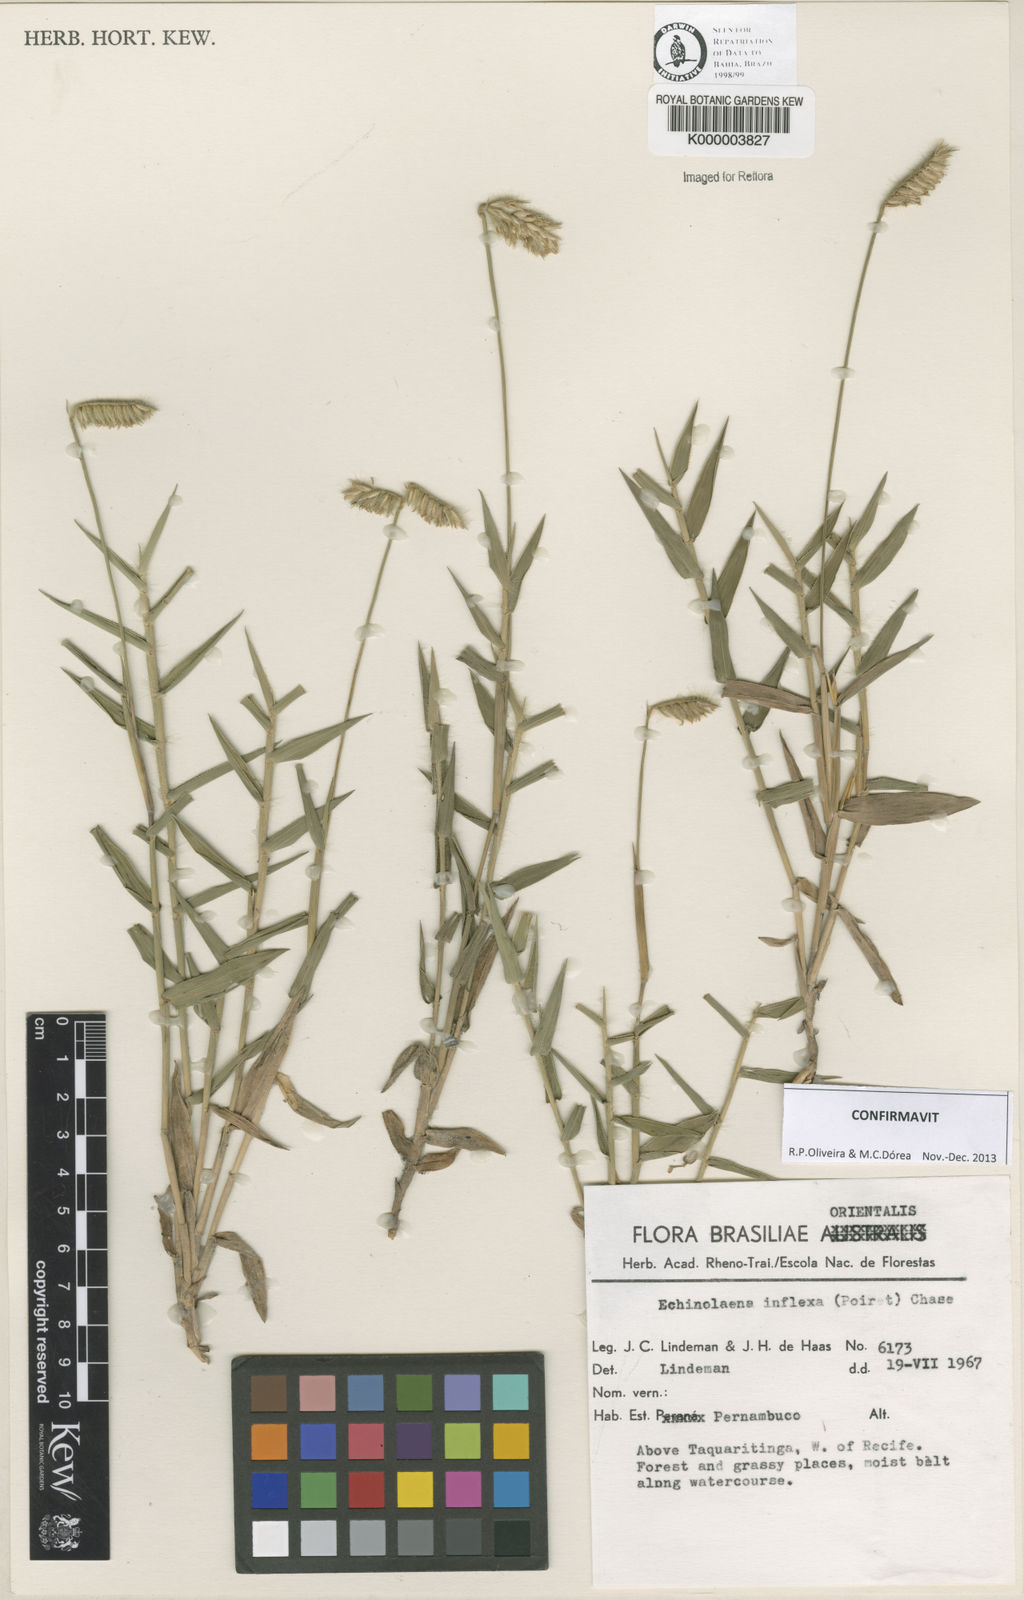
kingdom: Plantae
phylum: Tracheophyta
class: Liliopsida
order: Poales
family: Poaceae
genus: Echinolaena
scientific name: Echinolaena inflexa
